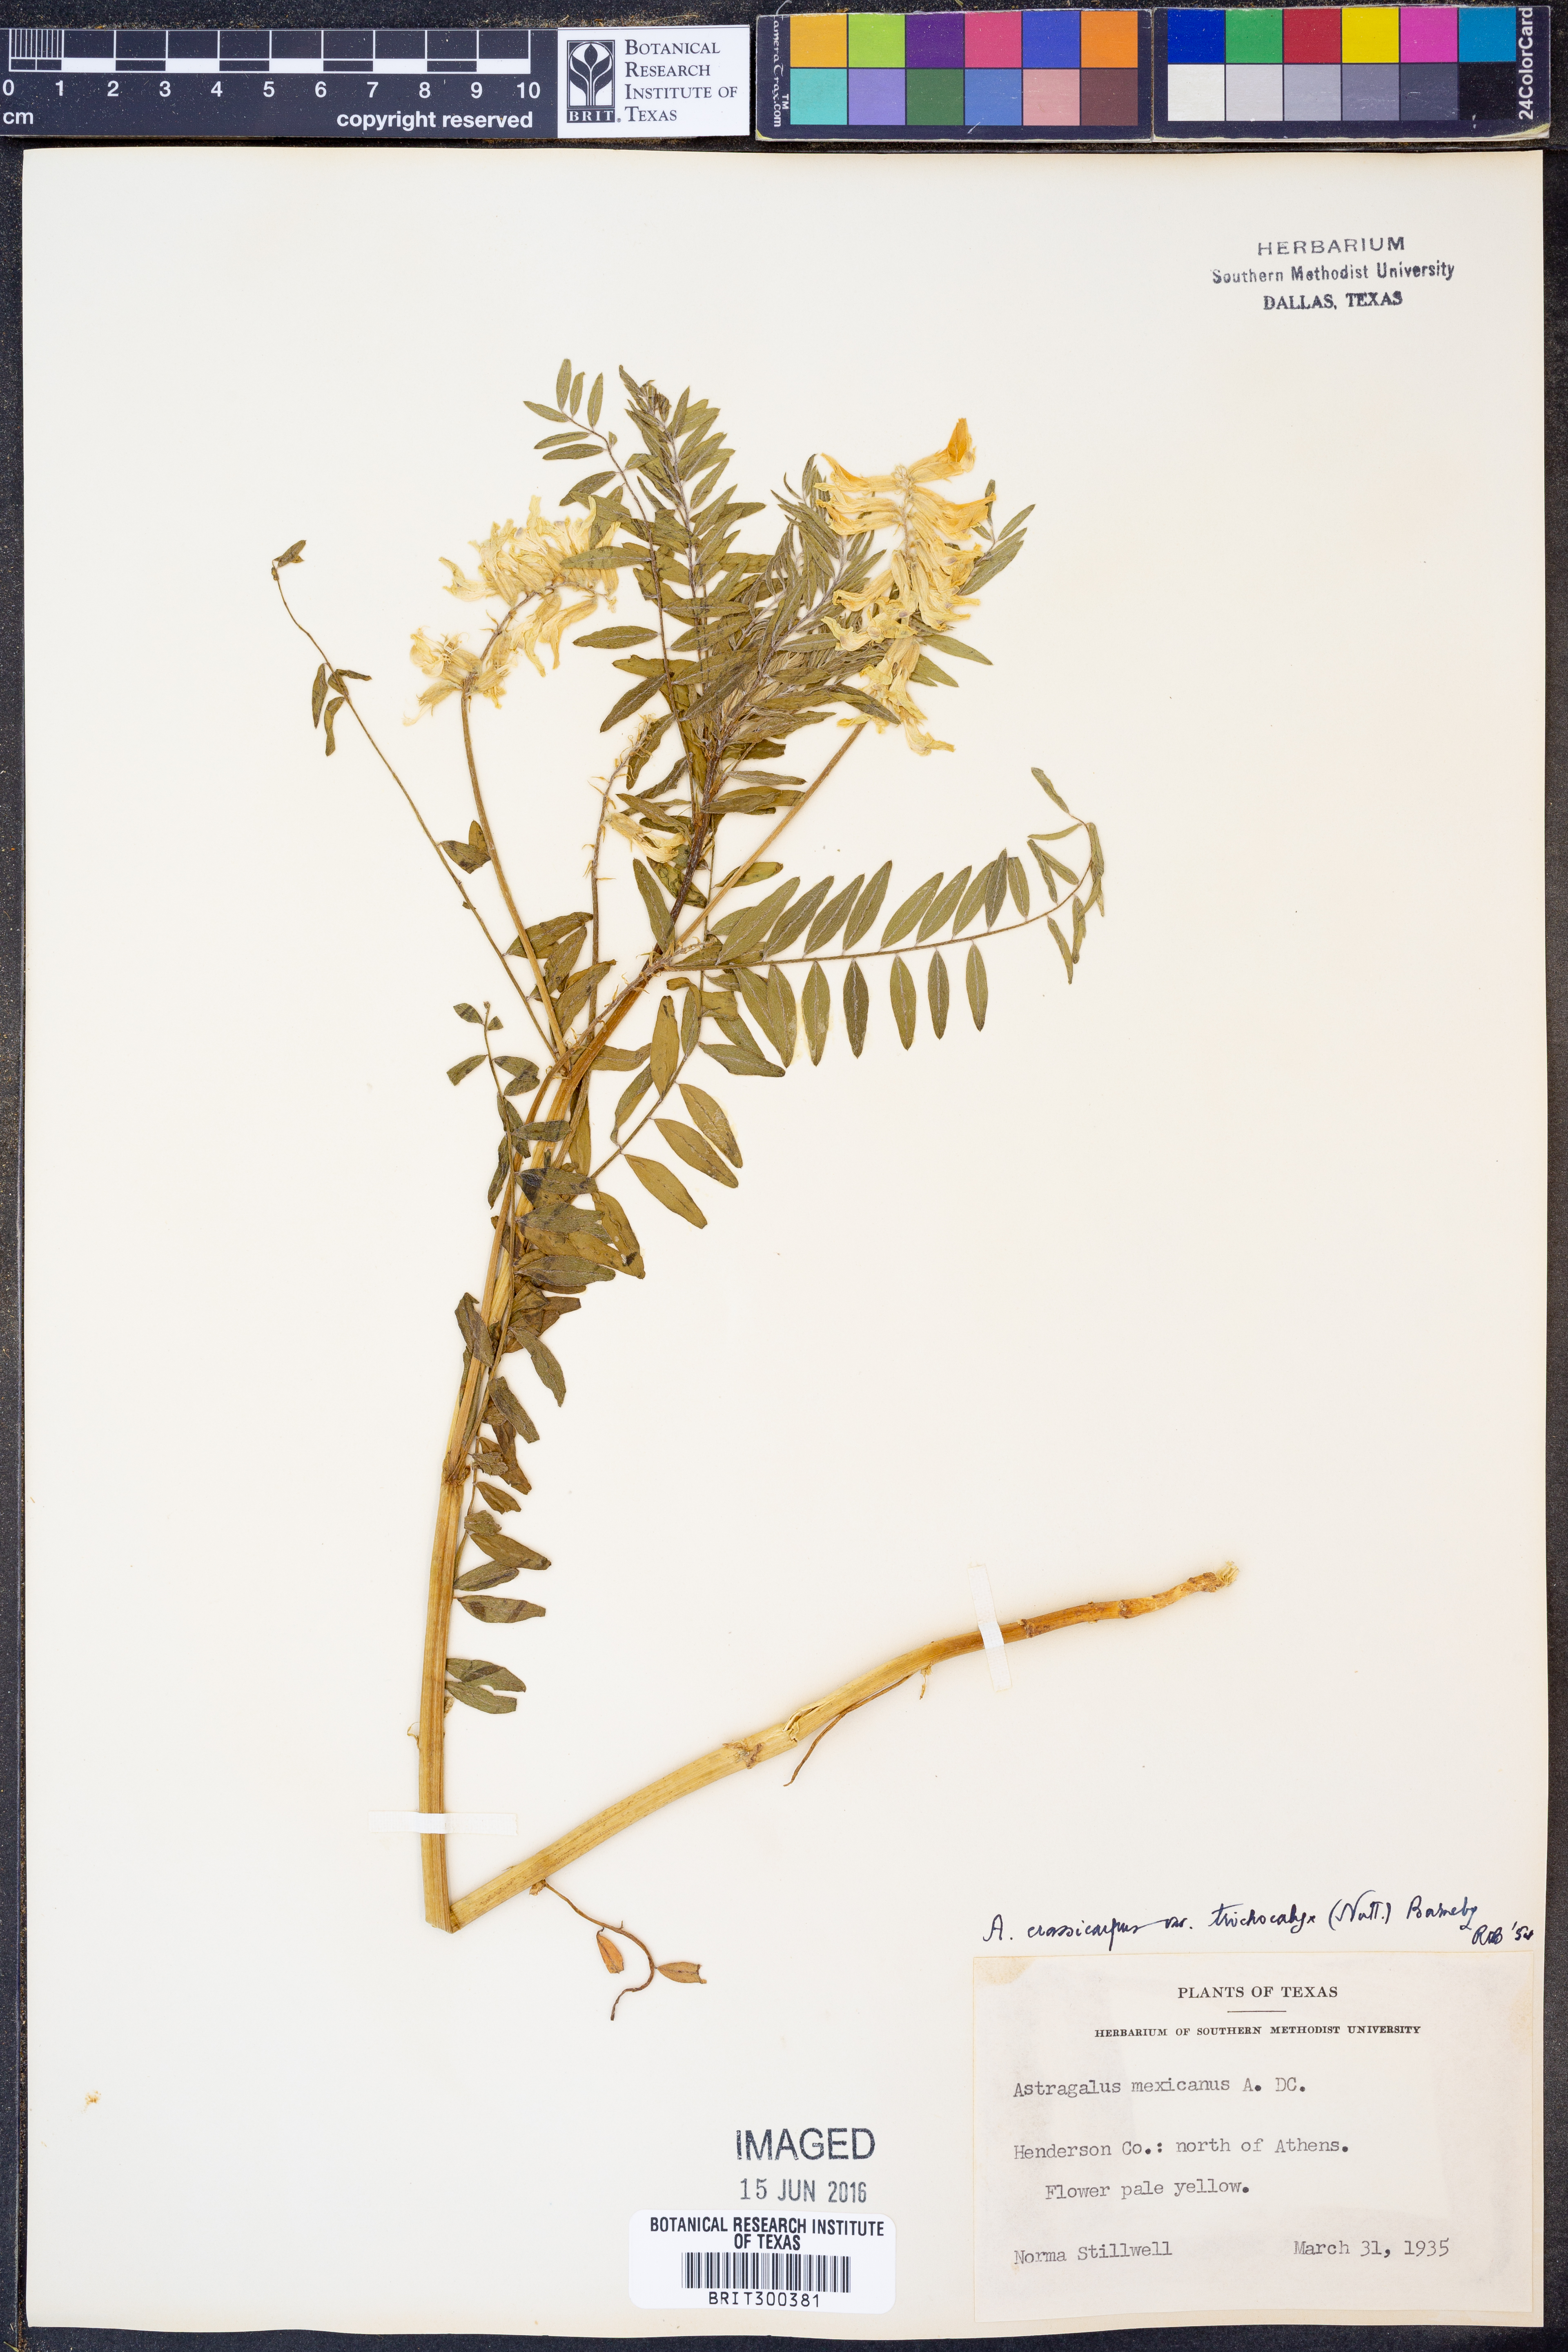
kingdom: Plantae
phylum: Tracheophyta
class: Magnoliopsida
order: Fabales
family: Fabaceae
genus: Astragalus
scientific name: Astragalus crassicarpus
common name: Ground-plum milk-vetch
